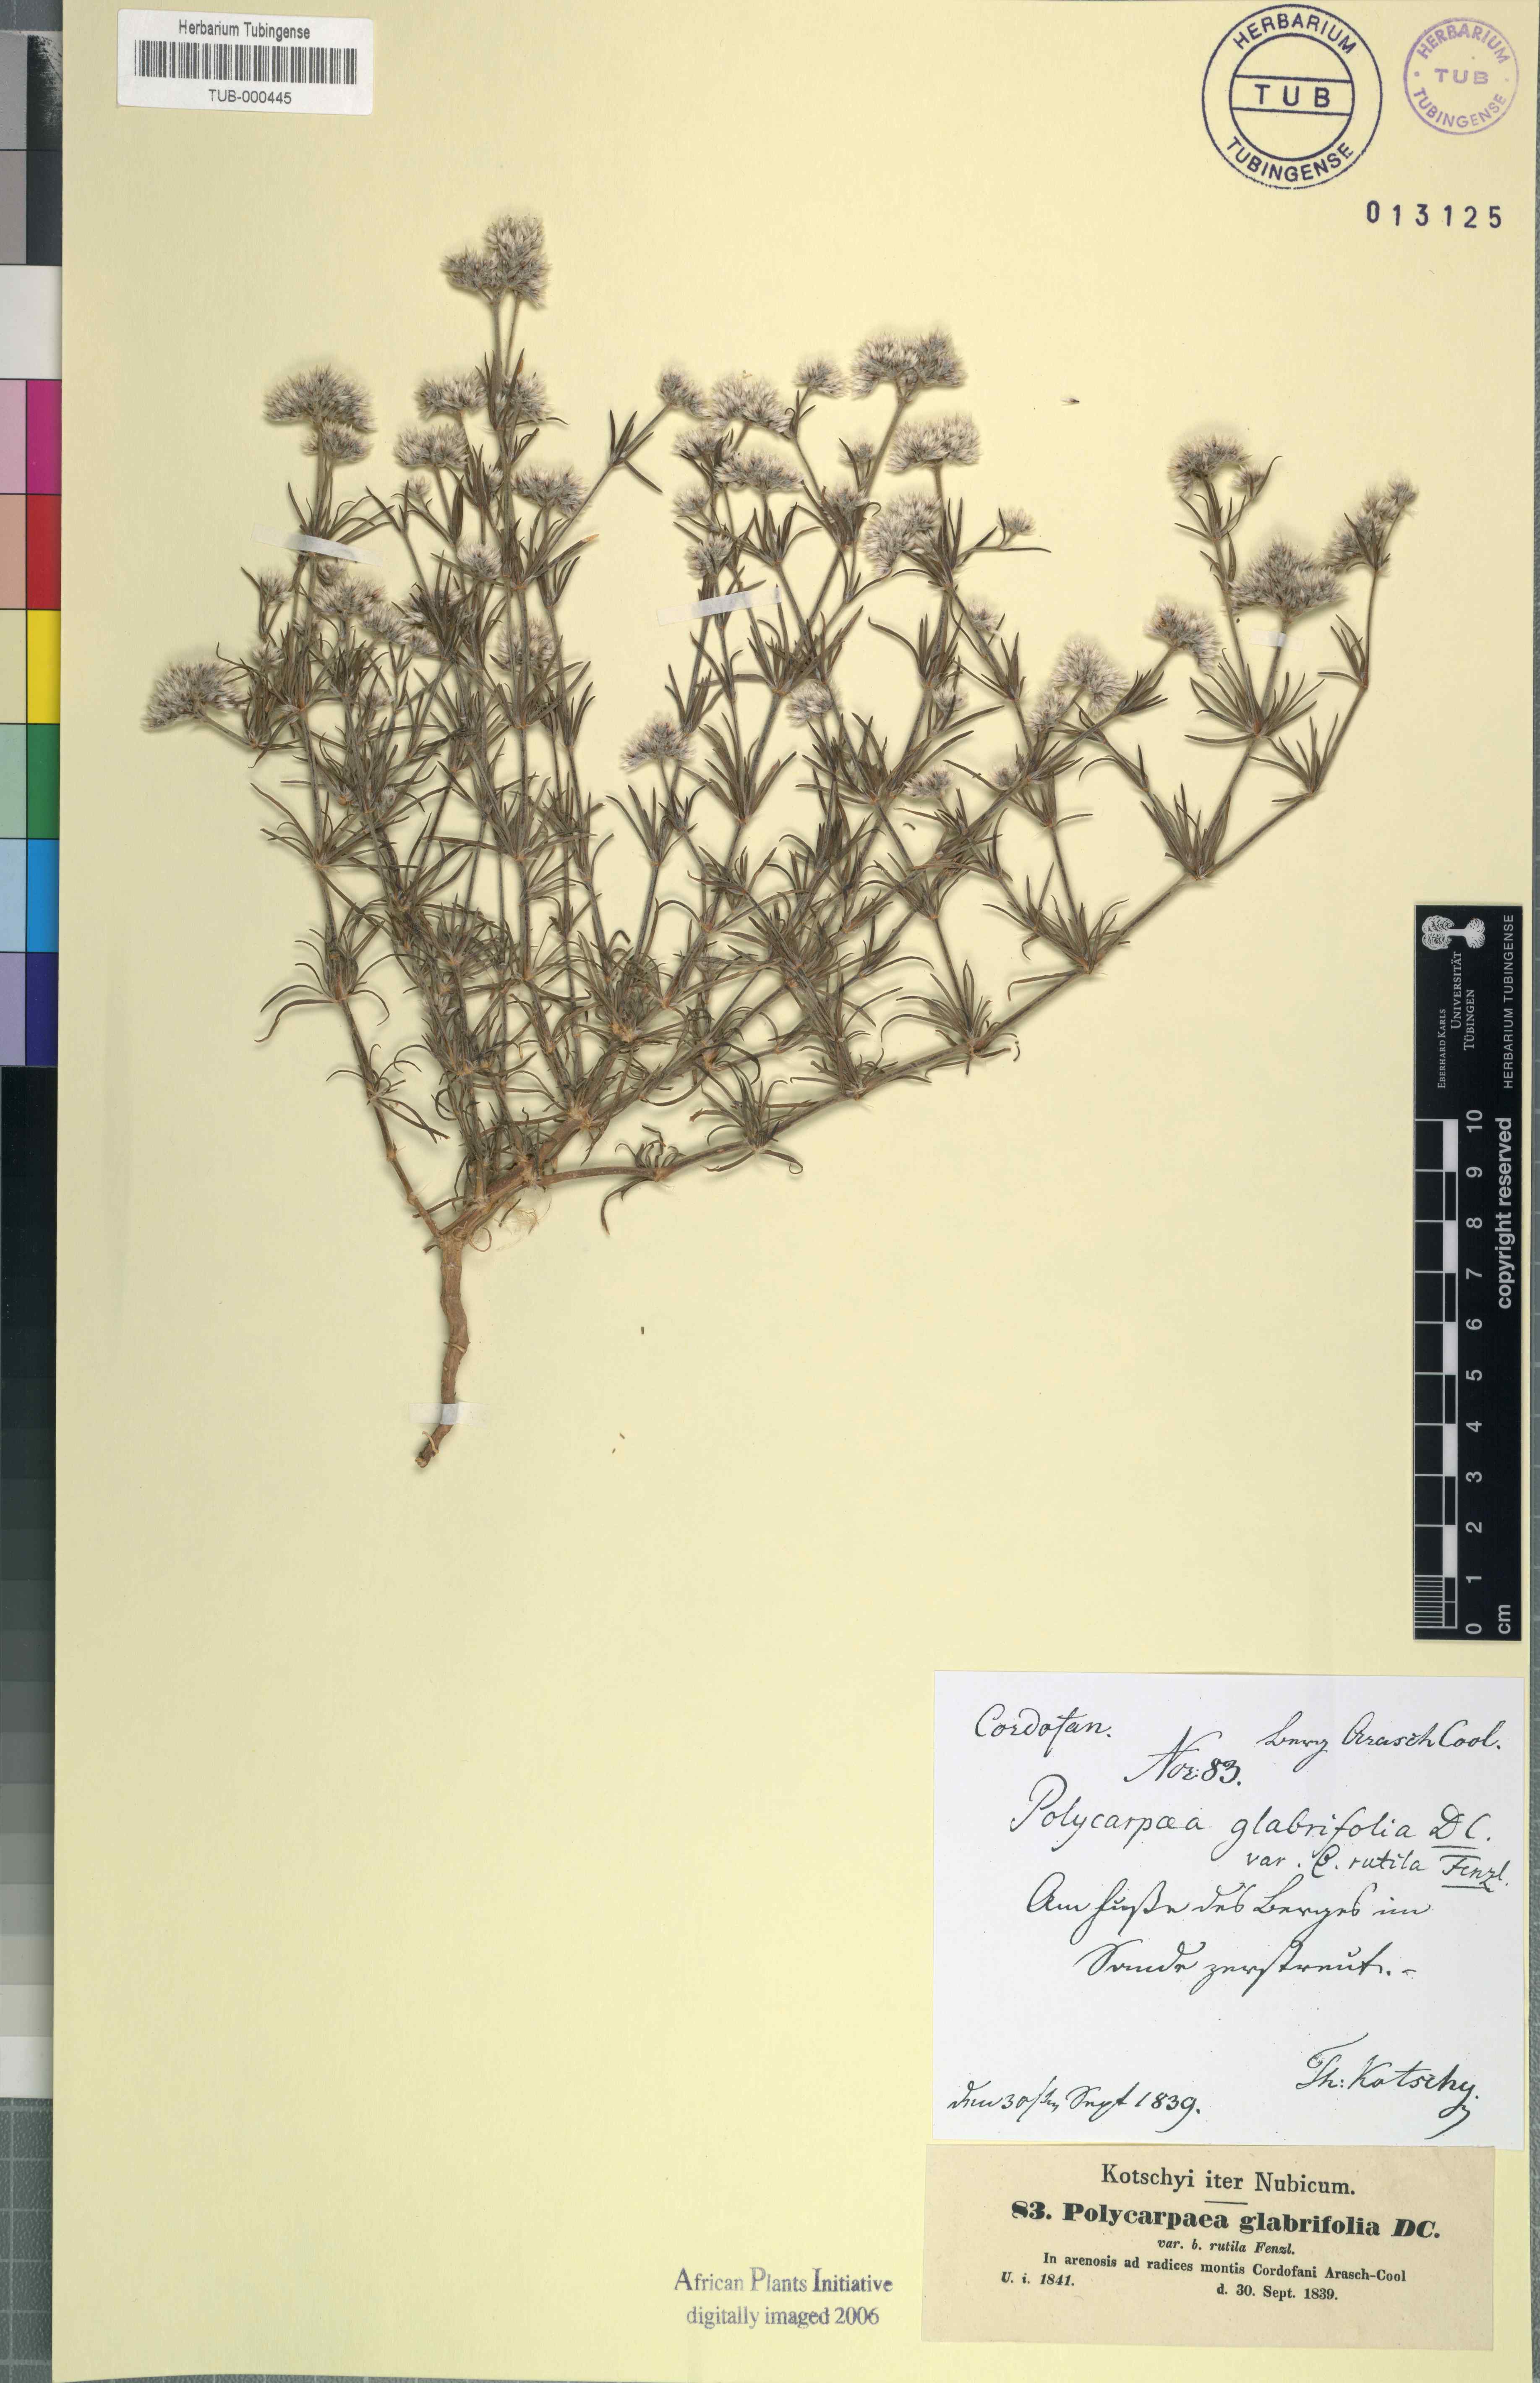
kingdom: Plantae
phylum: Tracheophyta
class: Magnoliopsida
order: Caryophyllales
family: Caryophyllaceae
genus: Polycarpaea
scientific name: Polycarpaea corymbosa
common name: Oldman's cap
